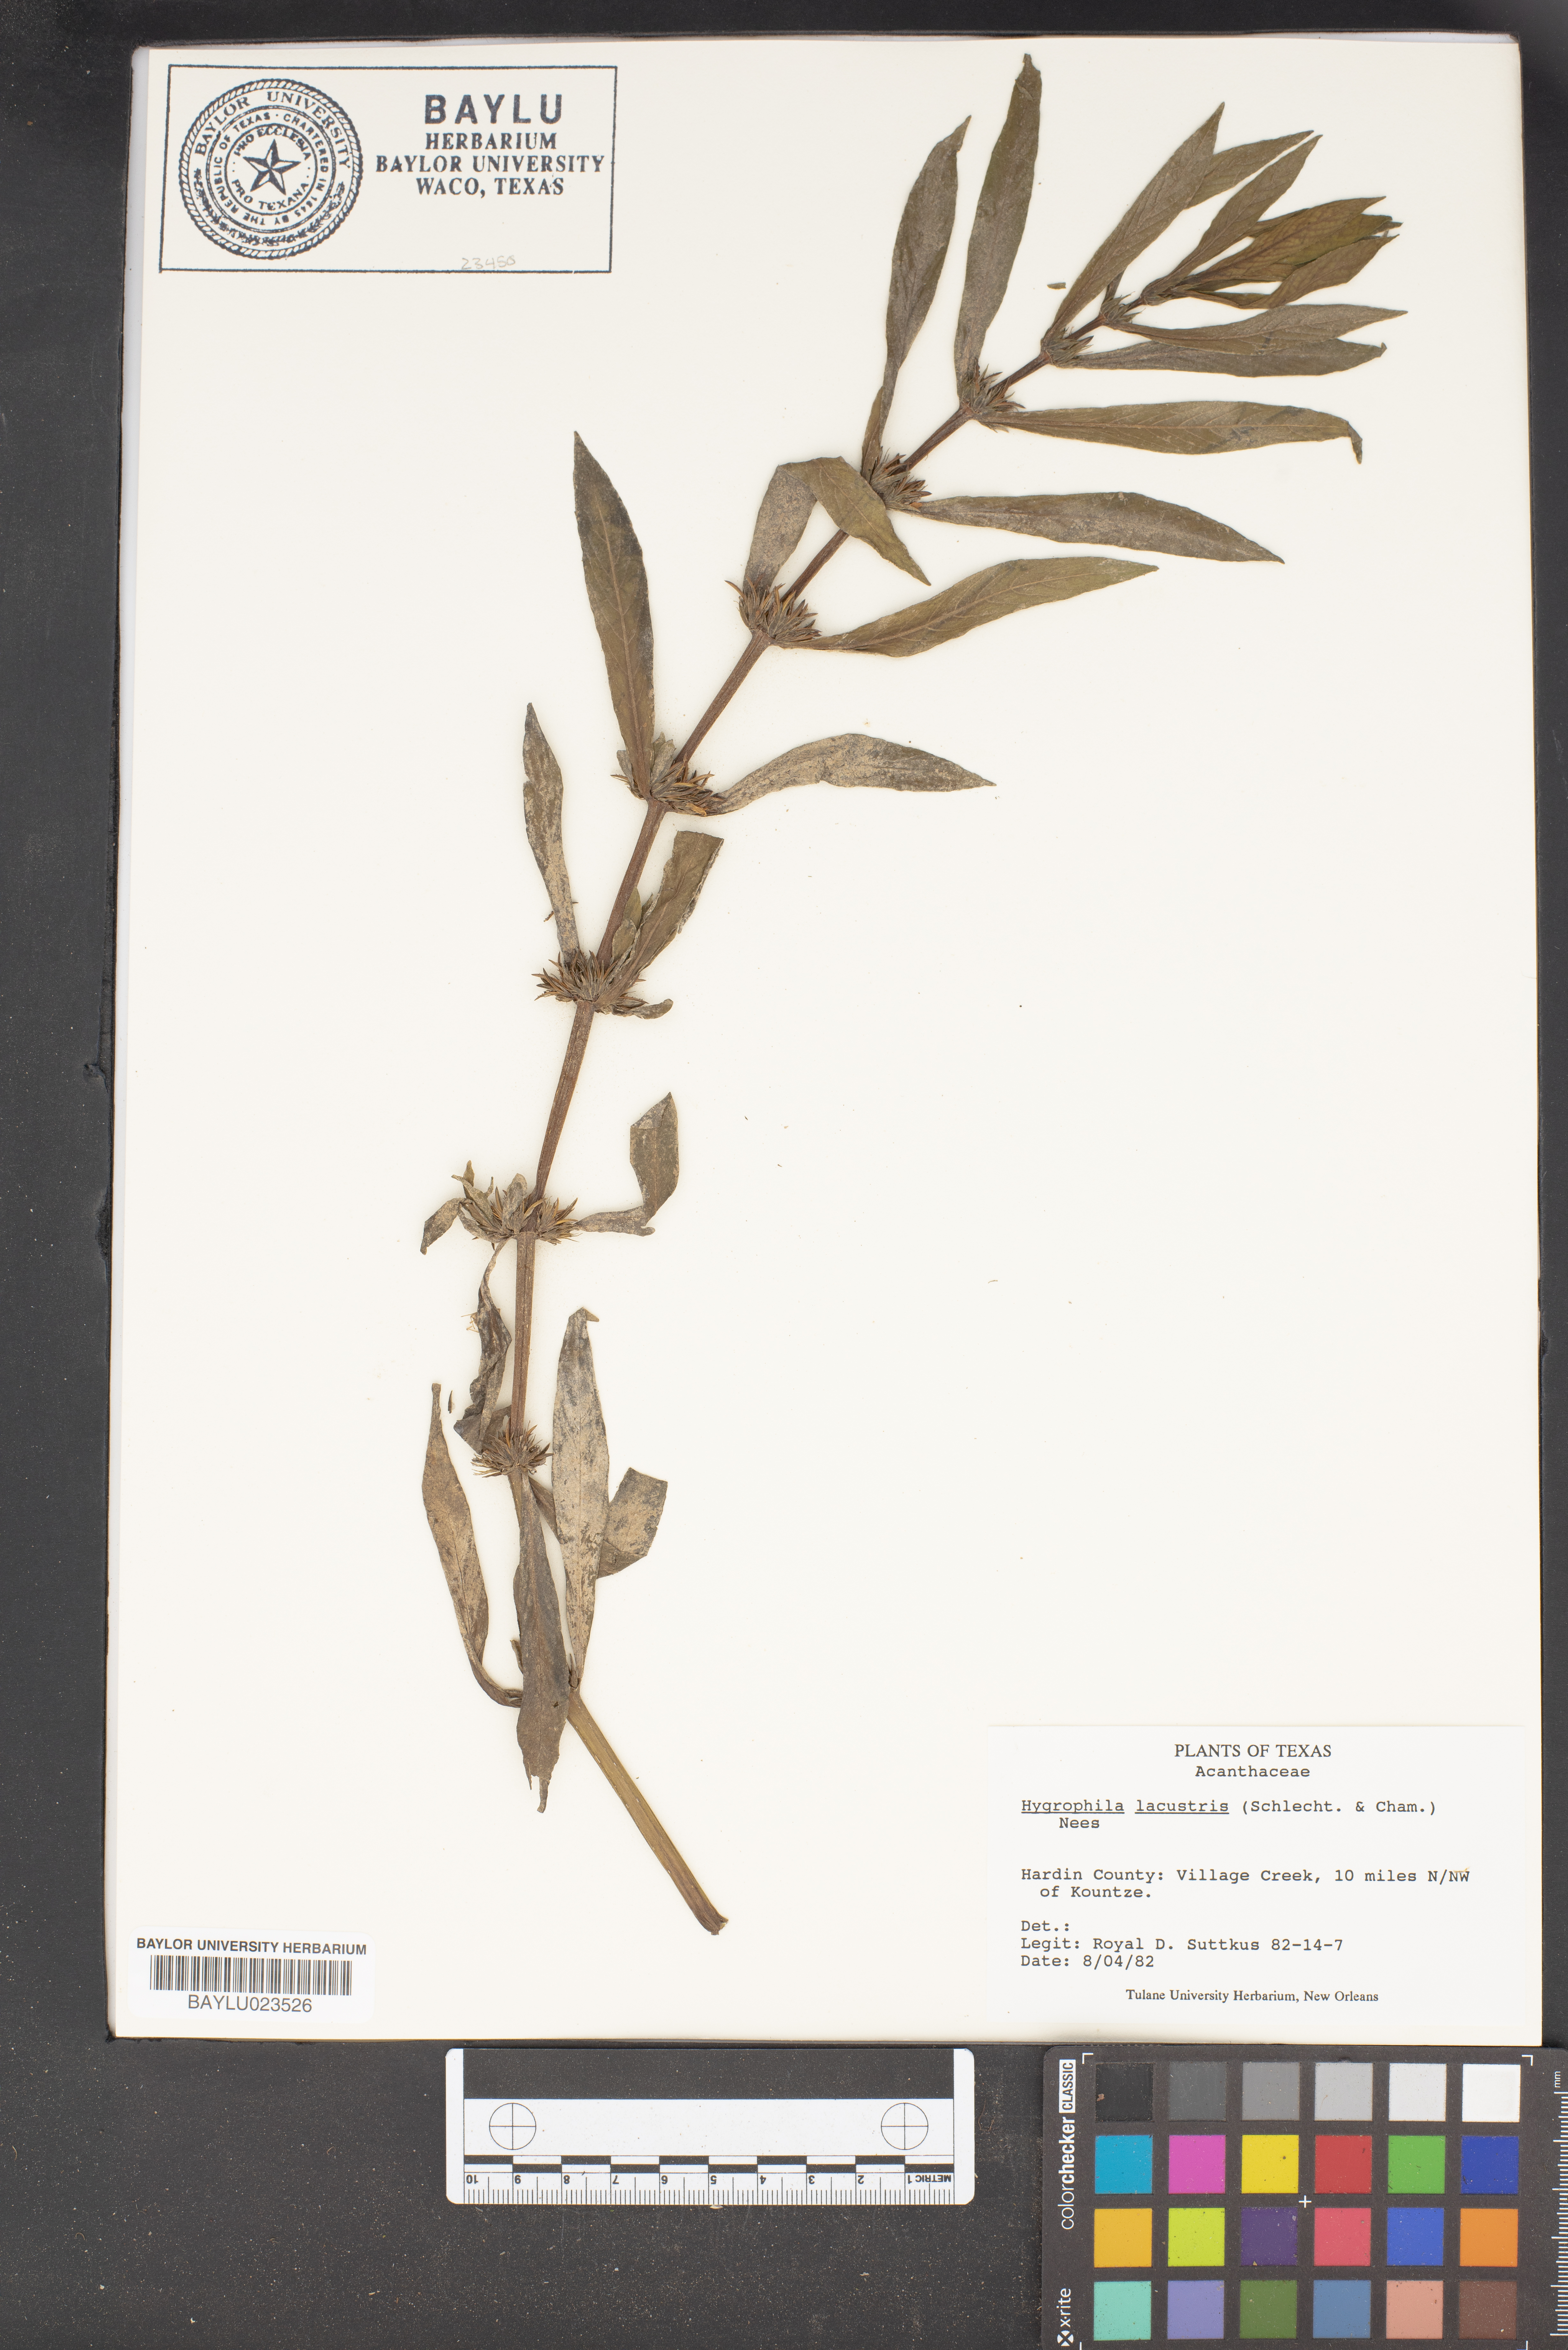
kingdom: Plantae
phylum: Tracheophyta
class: Magnoliopsida
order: Lamiales
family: Acanthaceae
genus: Hygrophila
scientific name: Hygrophila costata
